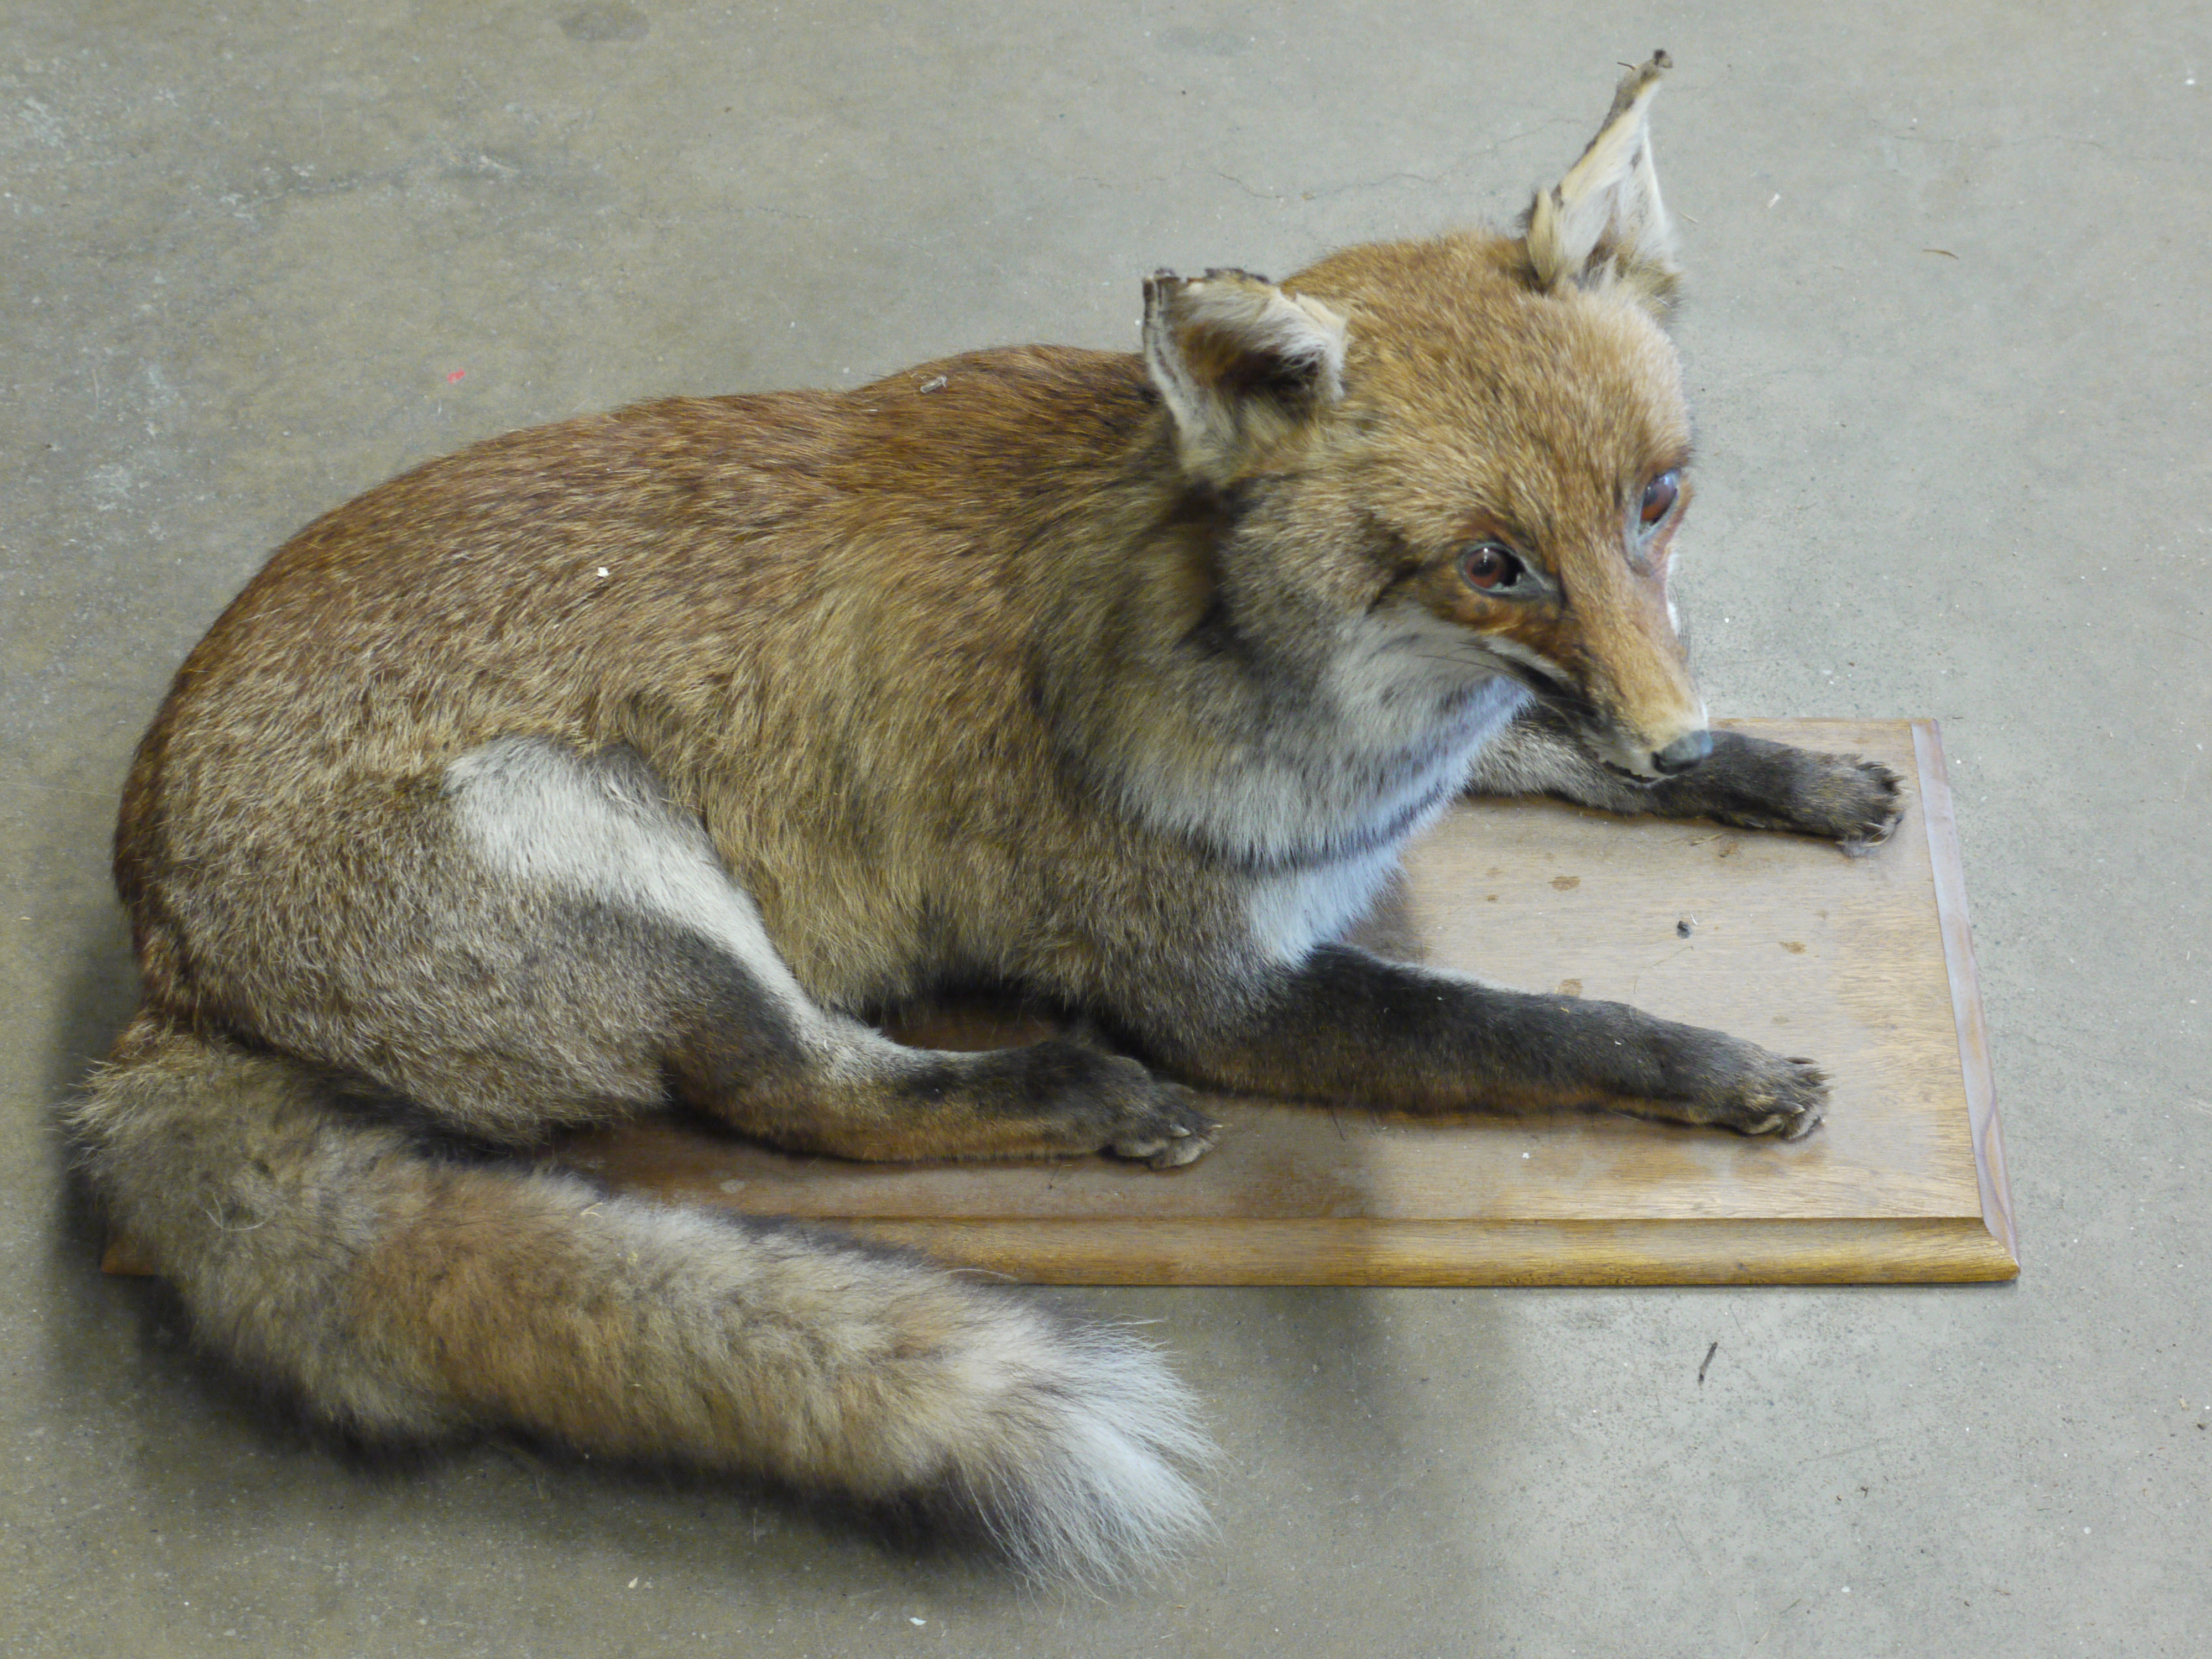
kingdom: Animalia
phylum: Chordata
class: Mammalia
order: Carnivora
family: Canidae
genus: Vulpes
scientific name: Vulpes vulpes
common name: Red fox
